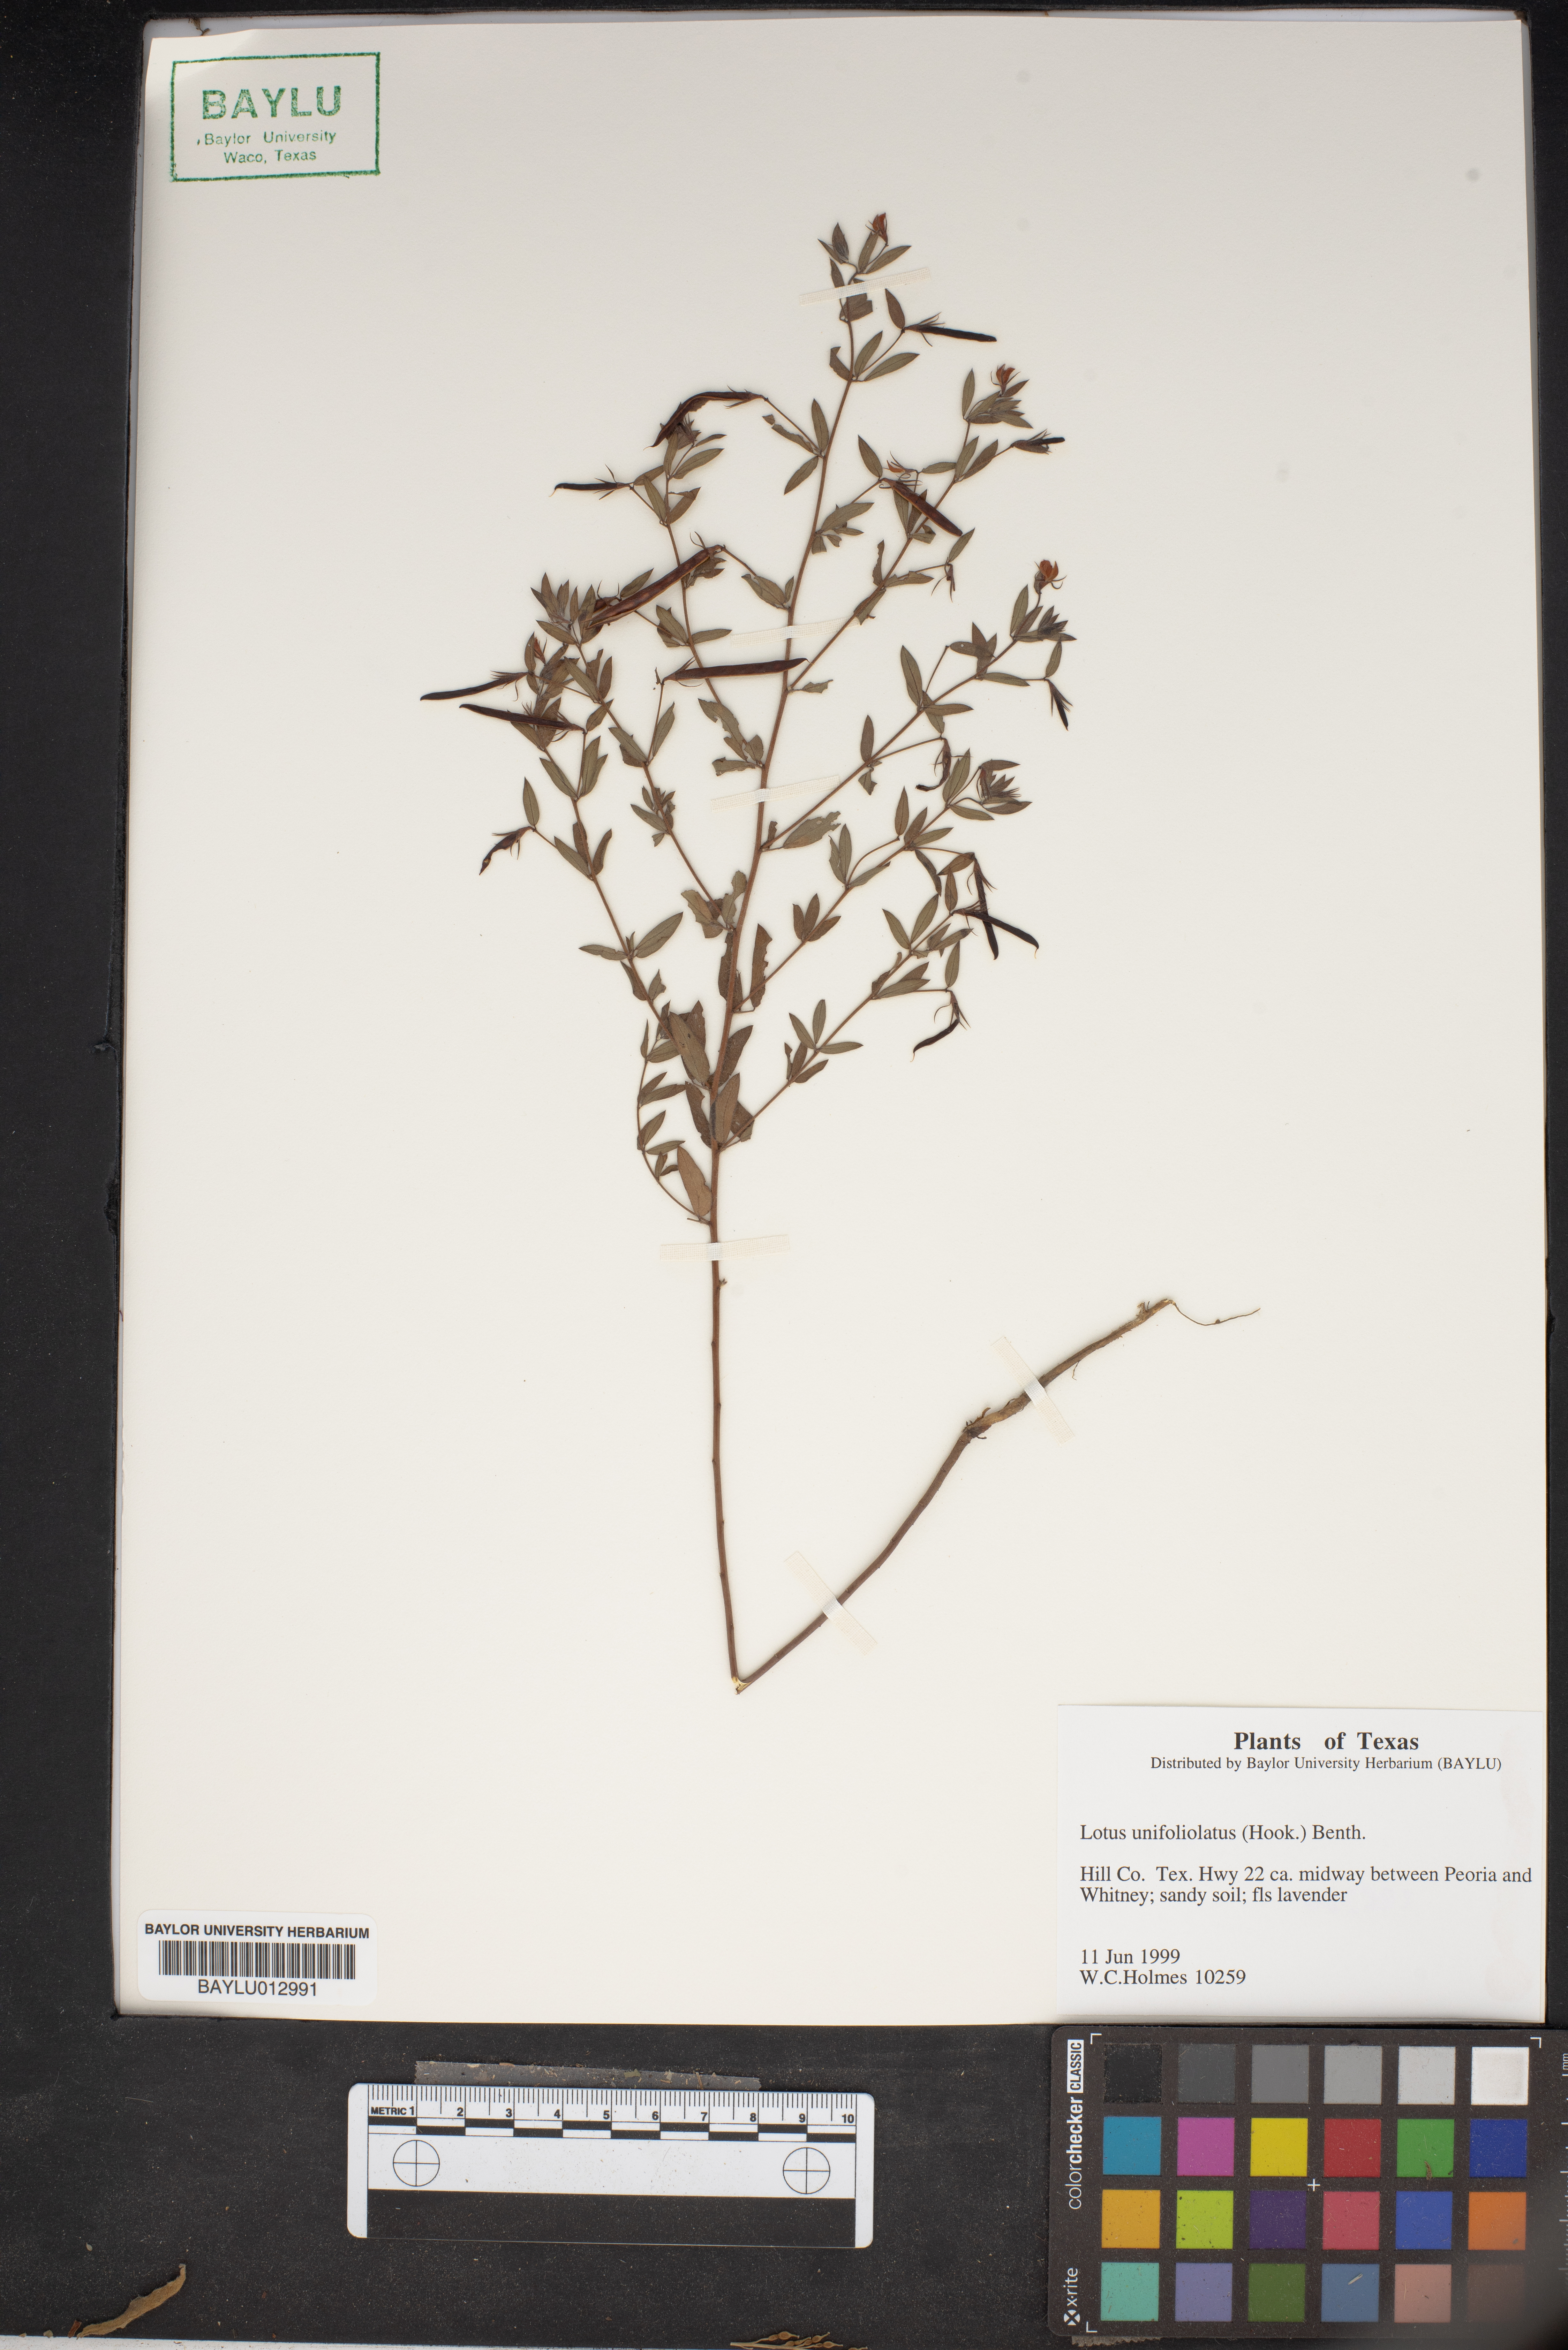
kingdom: Plantae
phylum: Tracheophyta
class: Magnoliopsida
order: Fabales
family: Fabaceae
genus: Acmispon
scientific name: Acmispon americanus
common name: American bird's-foot trefoil
